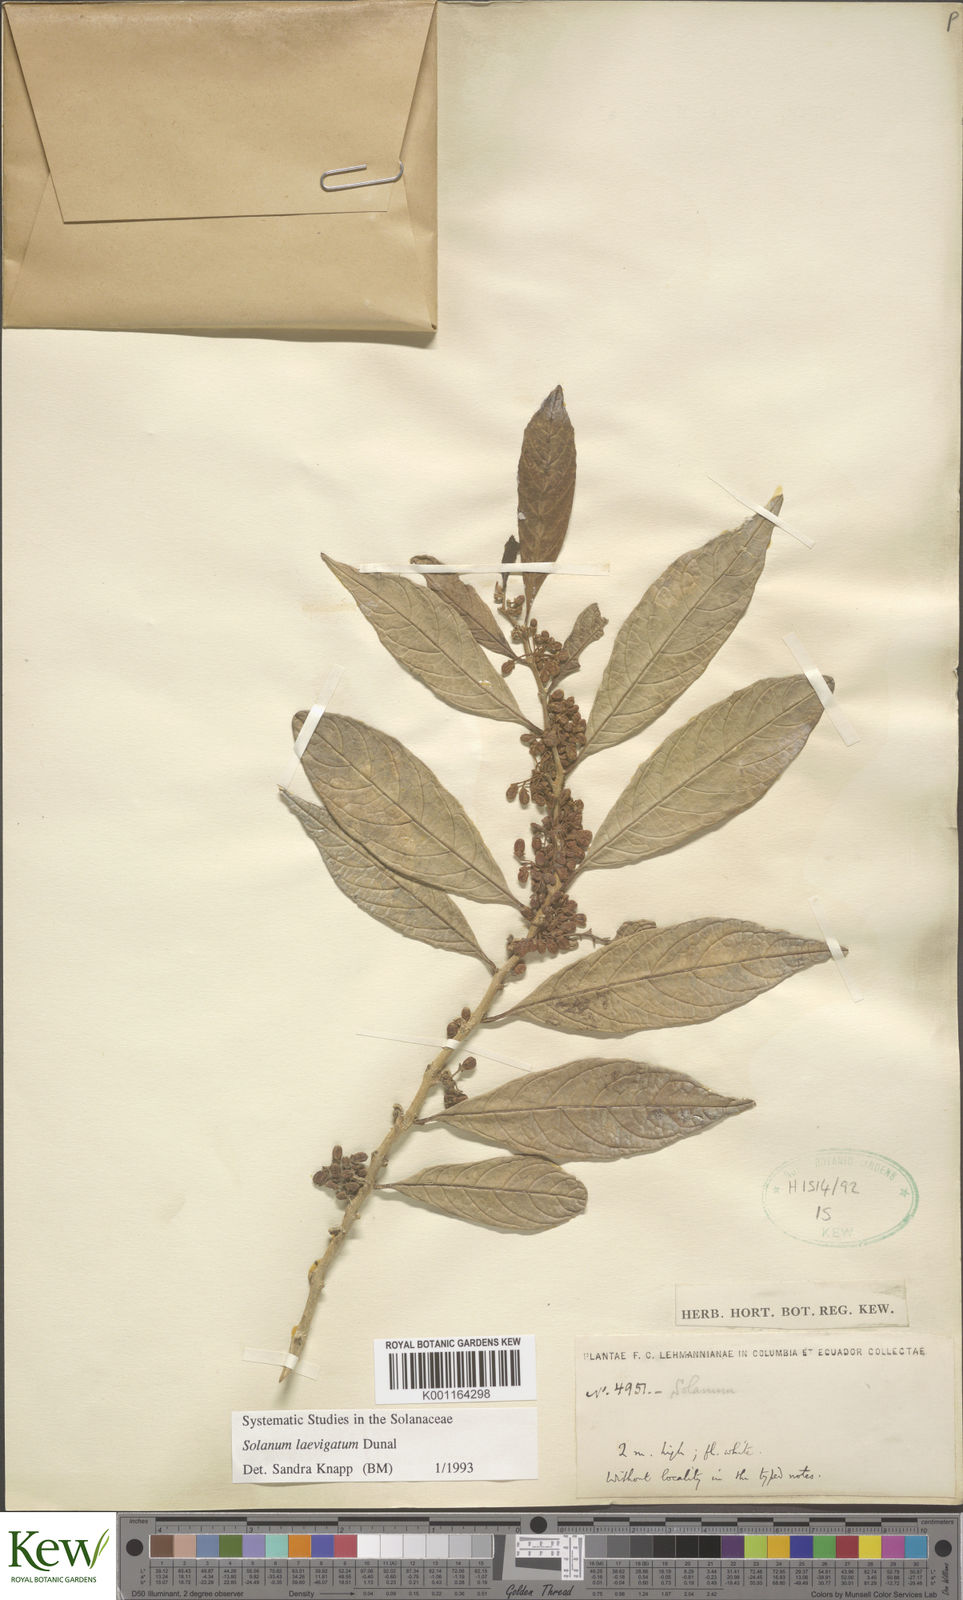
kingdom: Plantae
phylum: Tracheophyta
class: Magnoliopsida
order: Solanales
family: Solanaceae
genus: Solanum
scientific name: Solanum nudum
